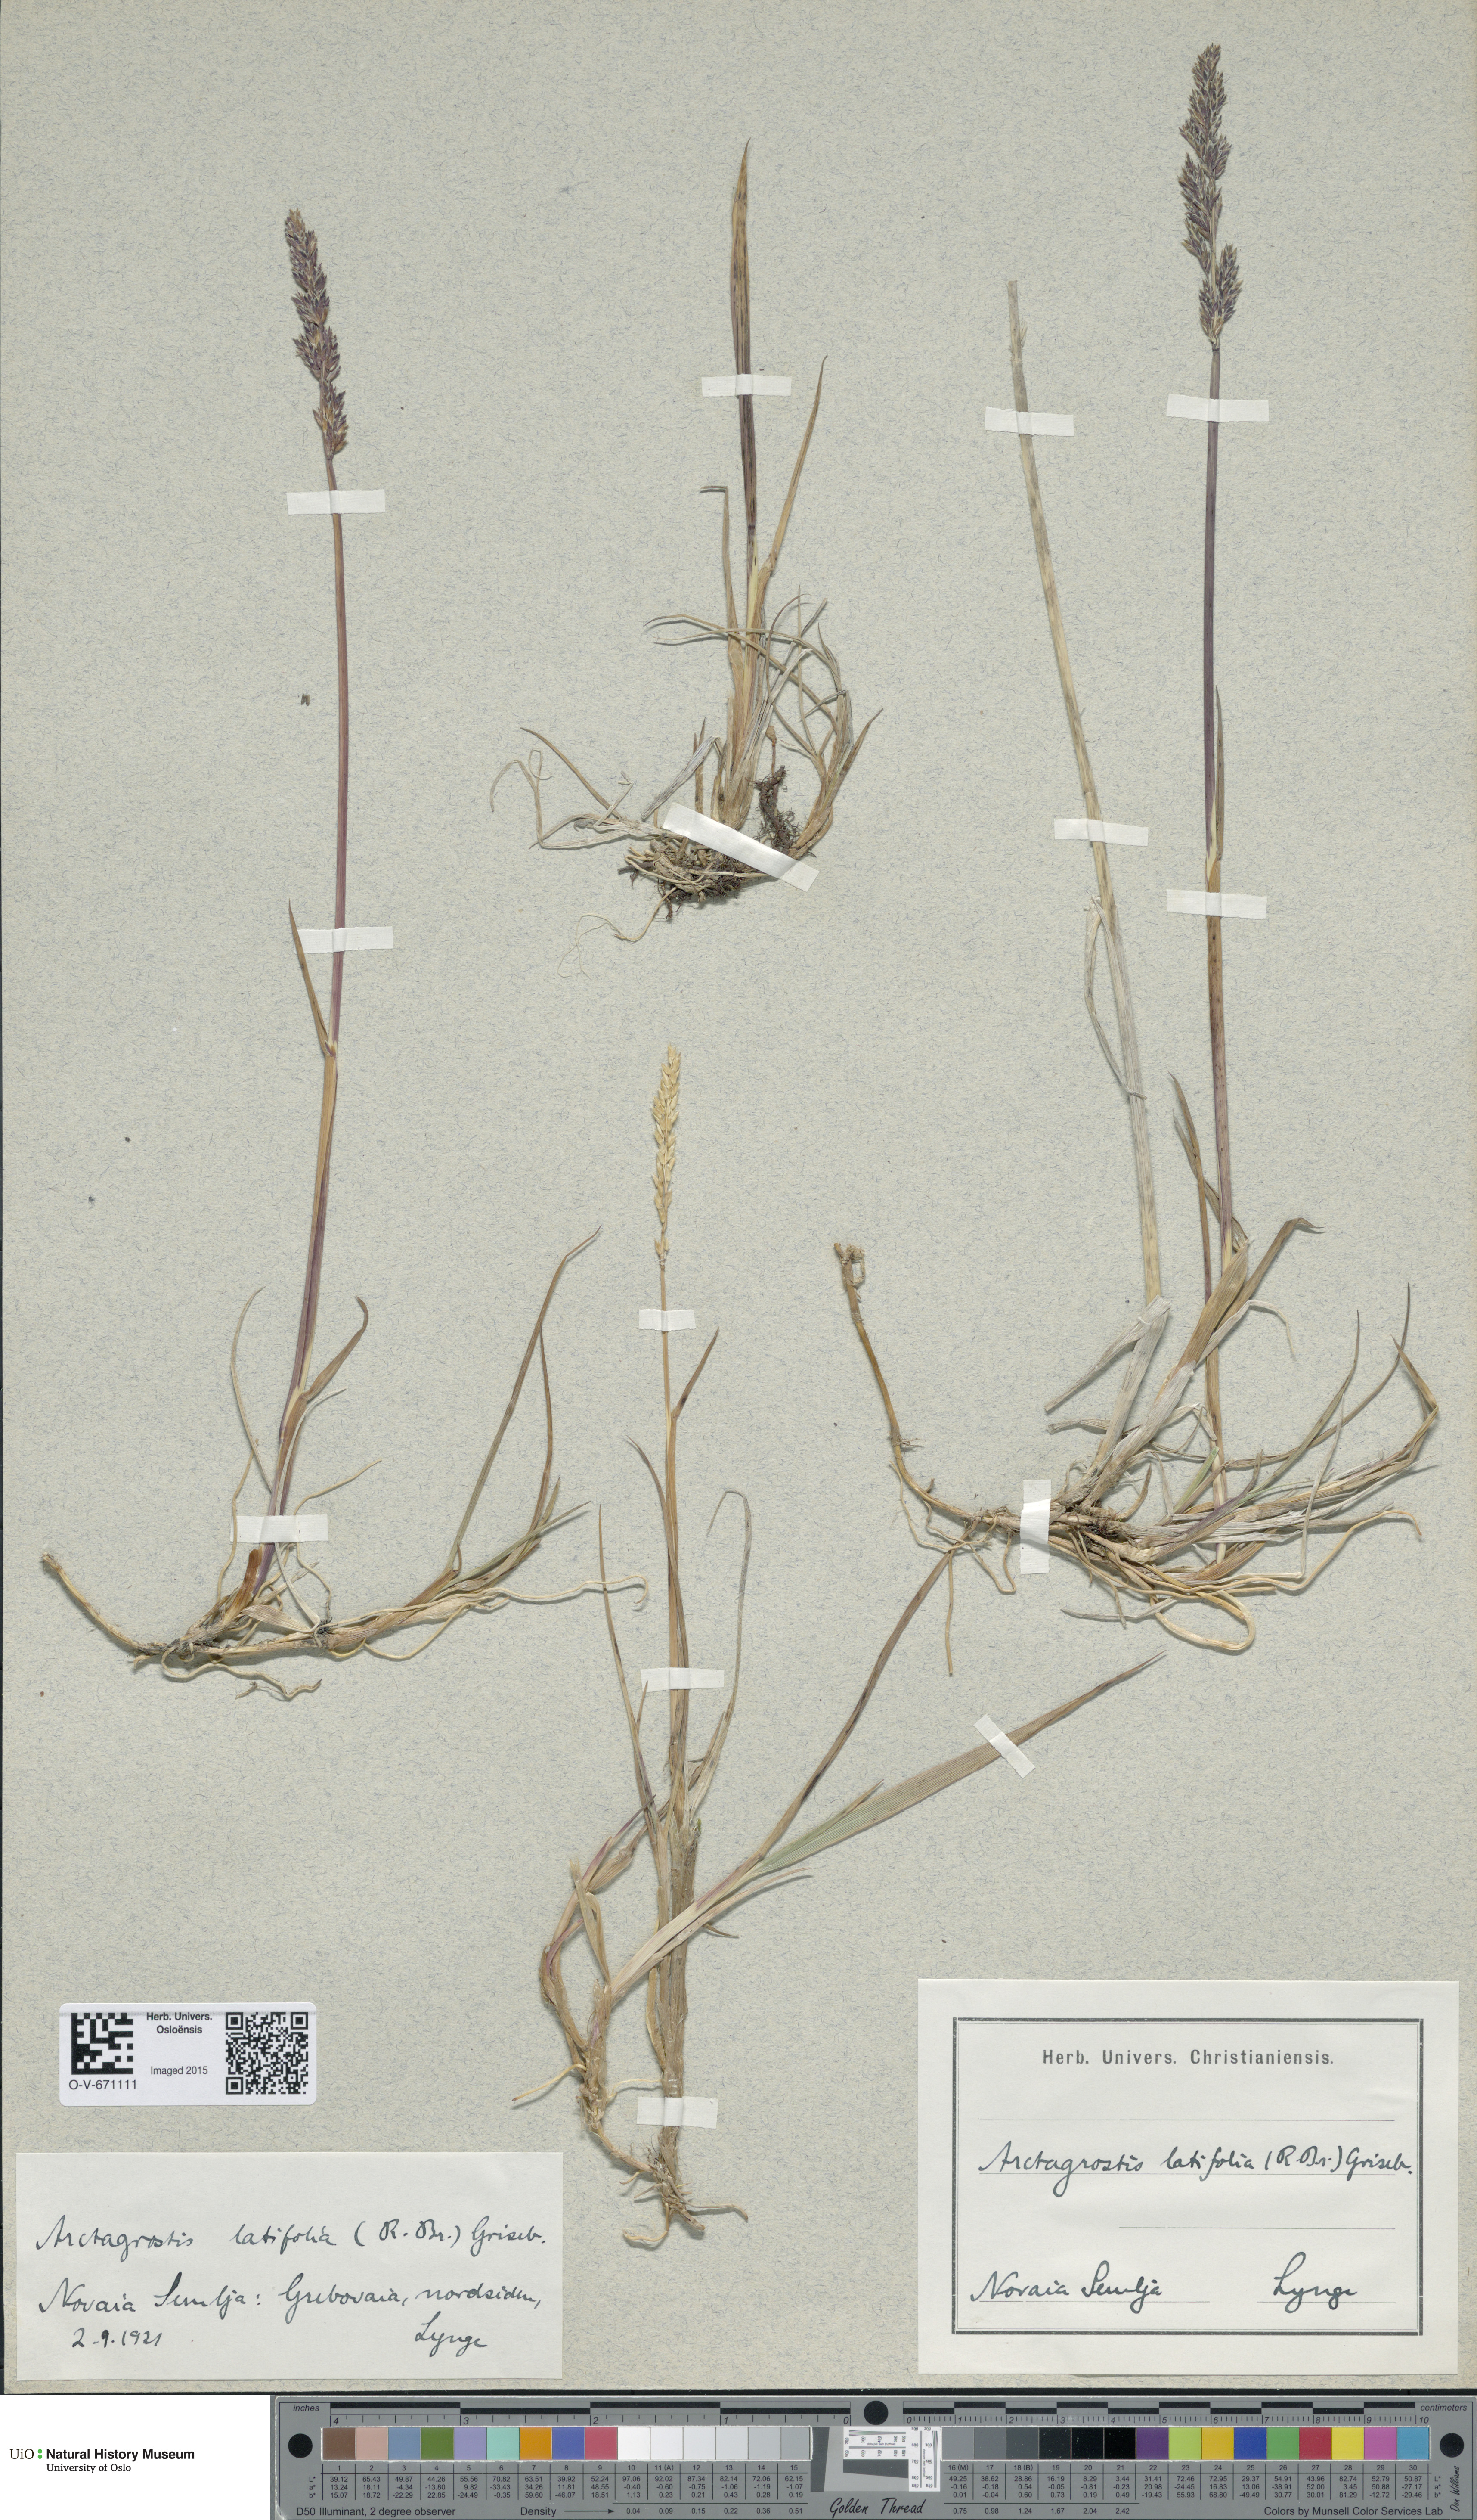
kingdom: Plantae
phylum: Tracheophyta
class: Liliopsida
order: Poales
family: Poaceae
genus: Arctagrostis
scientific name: Arctagrostis latifolia
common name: Arctic grass
